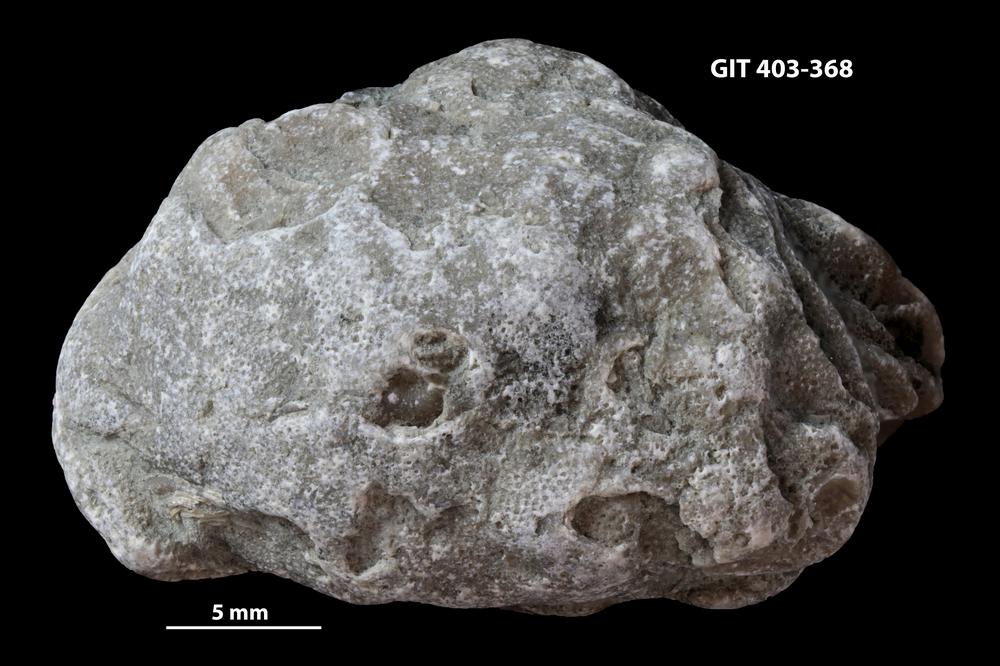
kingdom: Animalia
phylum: Bryozoa
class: Stenolaemata
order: Cystoporida
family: Fistuliporidae
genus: Fistulipora
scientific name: Fistulipora przhidolensis
